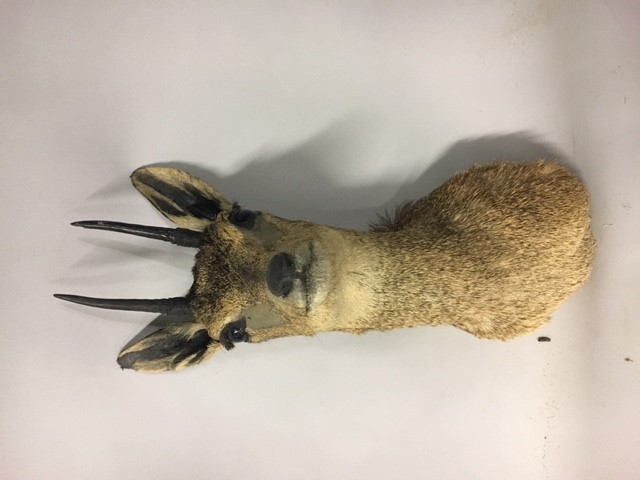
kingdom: Animalia
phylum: Chordata
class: Mammalia
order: Artiodactyla
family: Bovidae
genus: Oreotragus
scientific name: Oreotragus oreotragus
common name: Klipspringer
